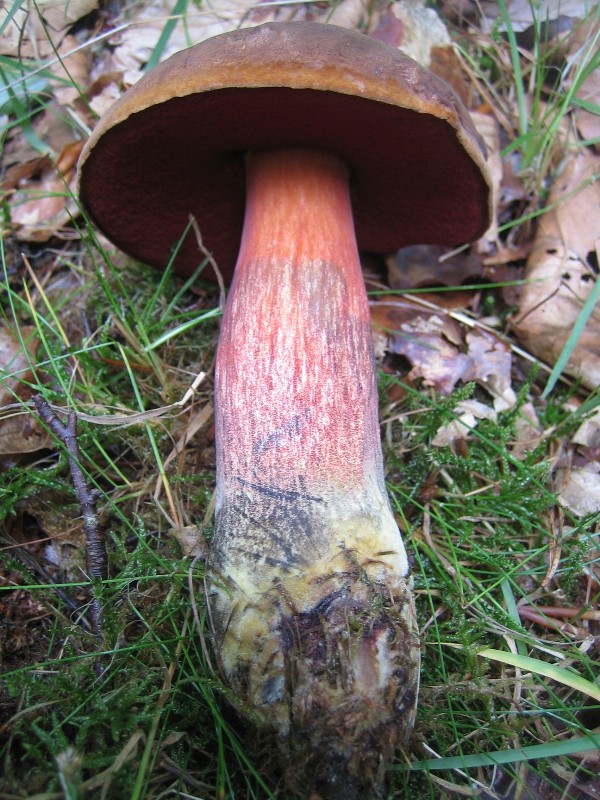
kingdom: Fungi
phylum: Basidiomycota
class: Agaricomycetes
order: Boletales
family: Boletaceae
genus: Neoboletus
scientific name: Neoboletus erythropus
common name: punktstokket indigorørhat
